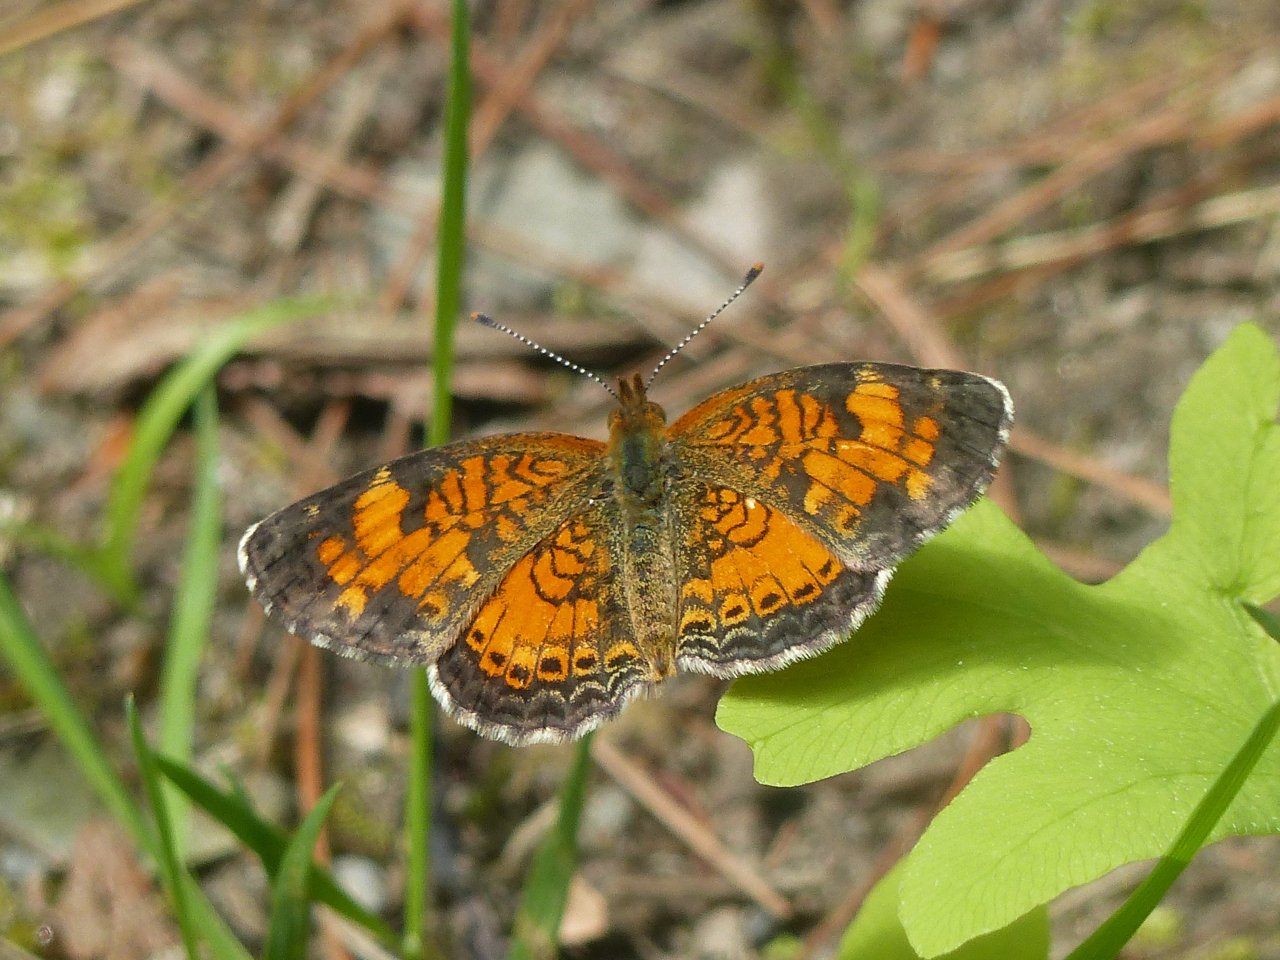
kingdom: Animalia
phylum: Arthropoda
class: Insecta
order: Lepidoptera
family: Nymphalidae
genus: Phyciodes
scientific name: Phyciodes tharos
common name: Northern Crescent
